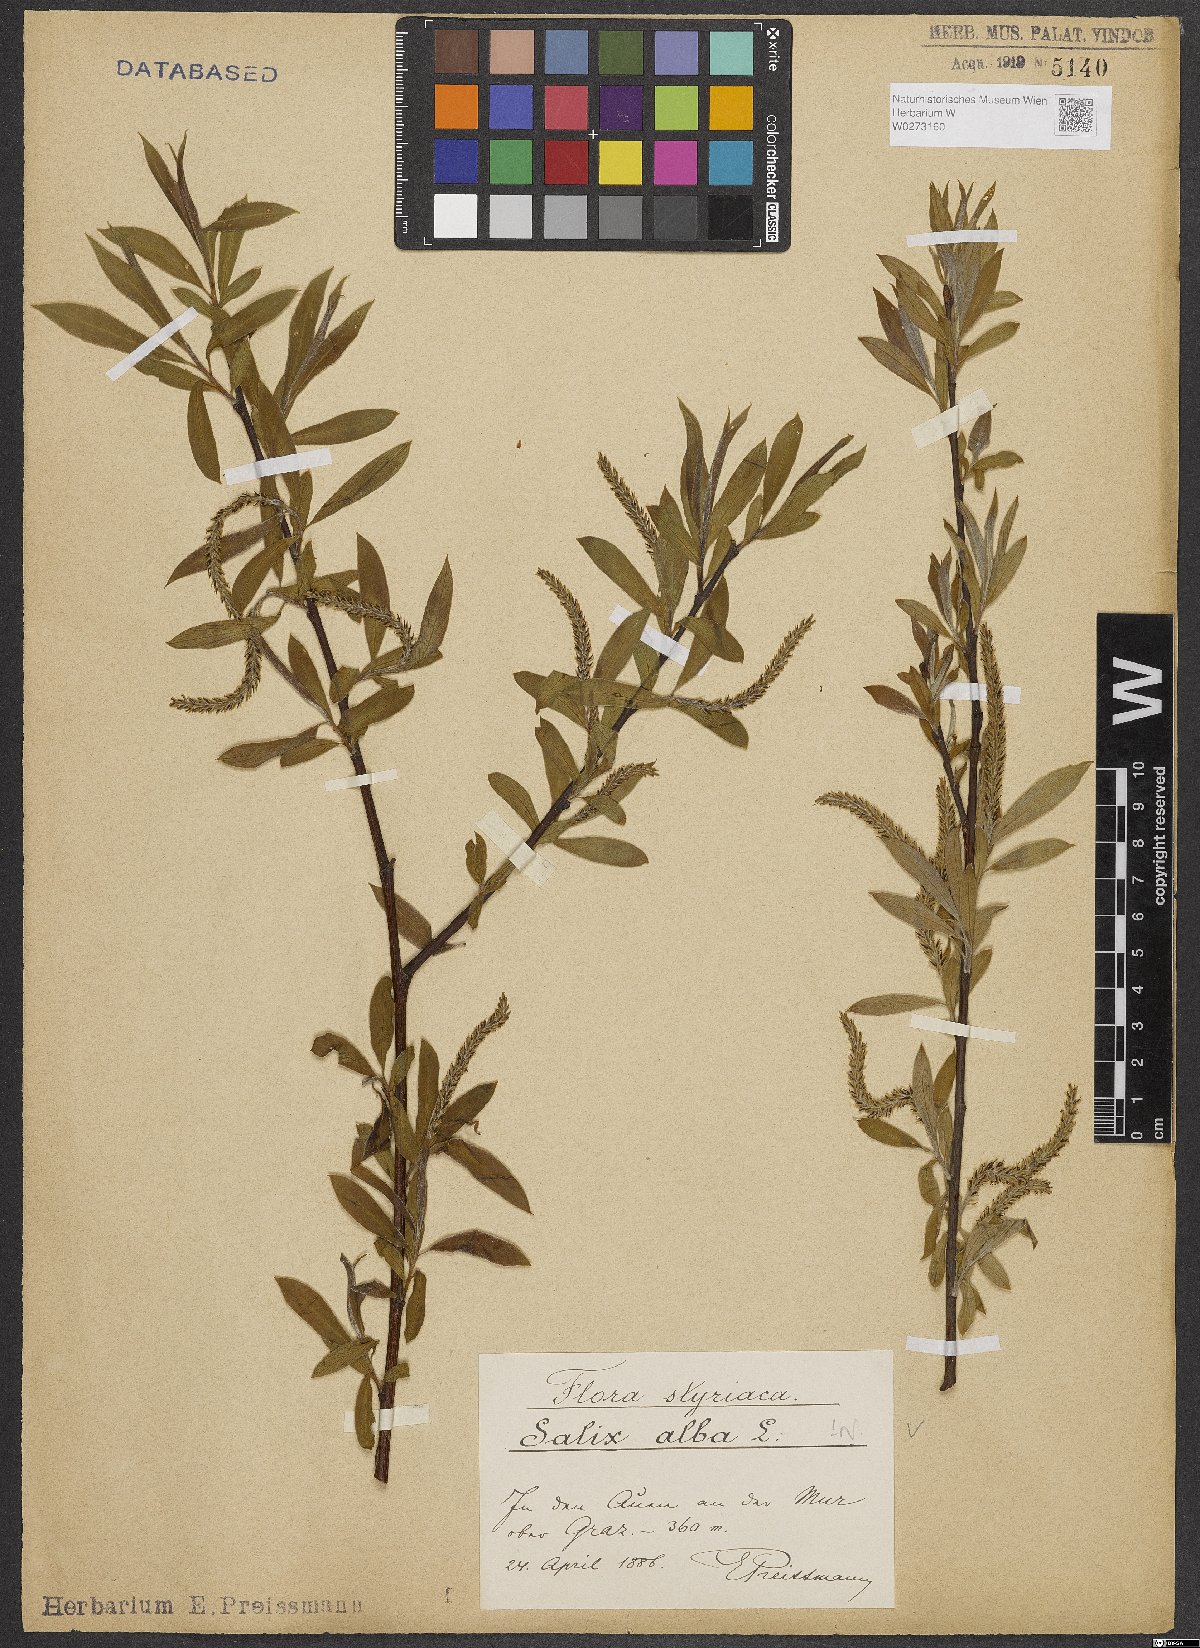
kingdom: Plantae
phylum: Tracheophyta
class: Magnoliopsida
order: Malpighiales
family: Salicaceae
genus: Salix
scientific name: Salix alba
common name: White willow
